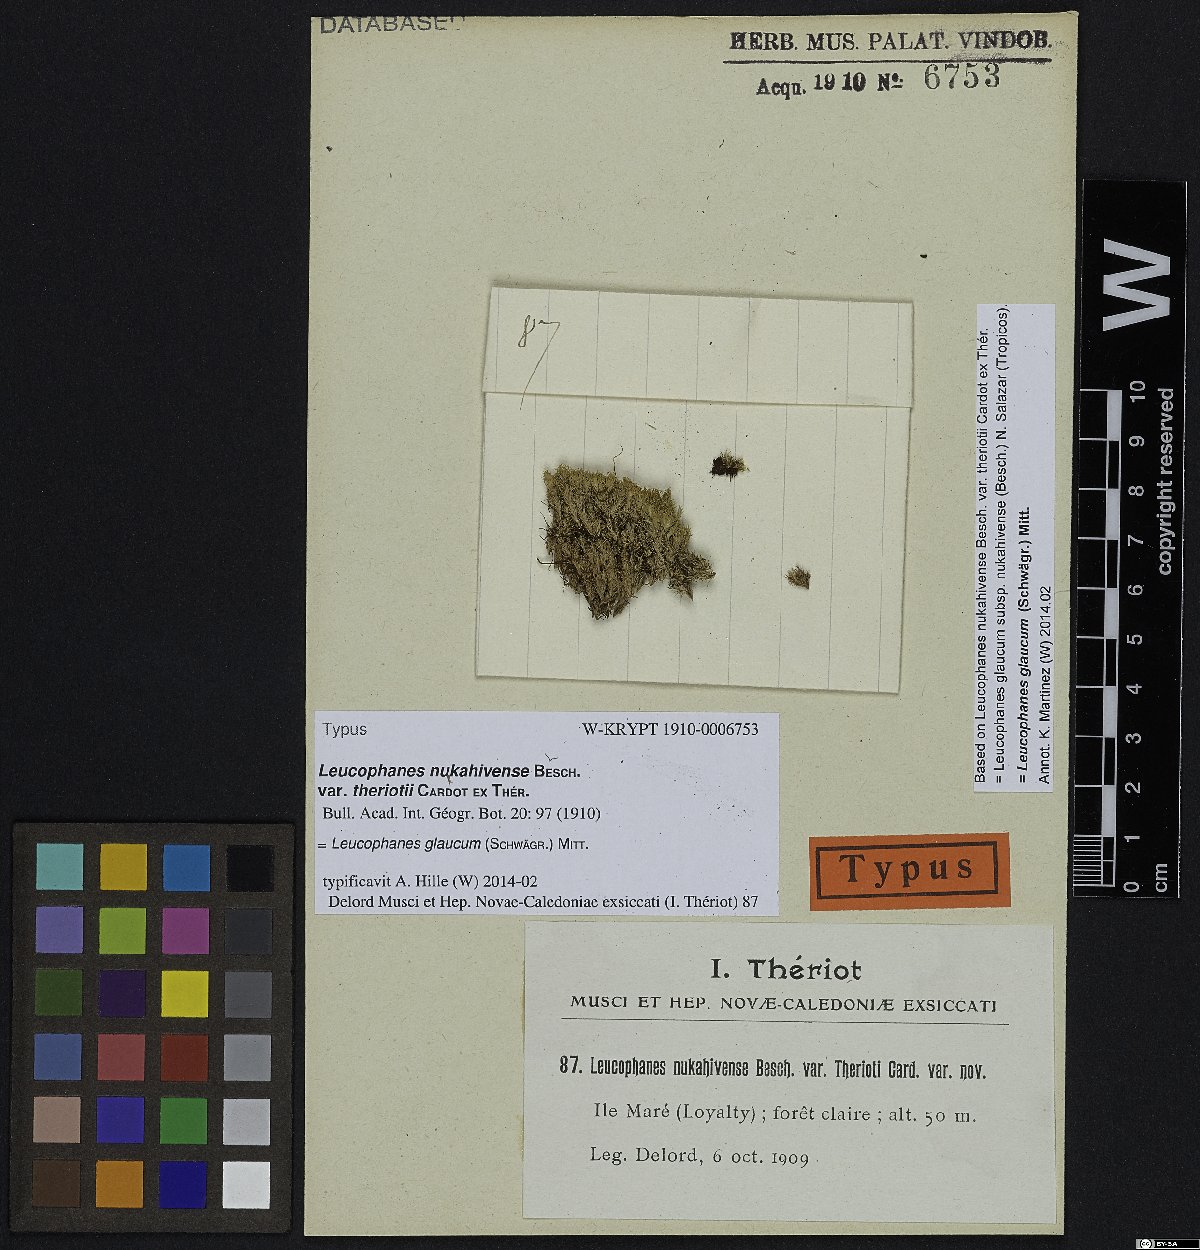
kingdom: Plantae
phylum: Bryophyta
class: Bryopsida
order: Dicranales
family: Calymperaceae
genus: Leucophanes
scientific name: Leucophanes glaucum
